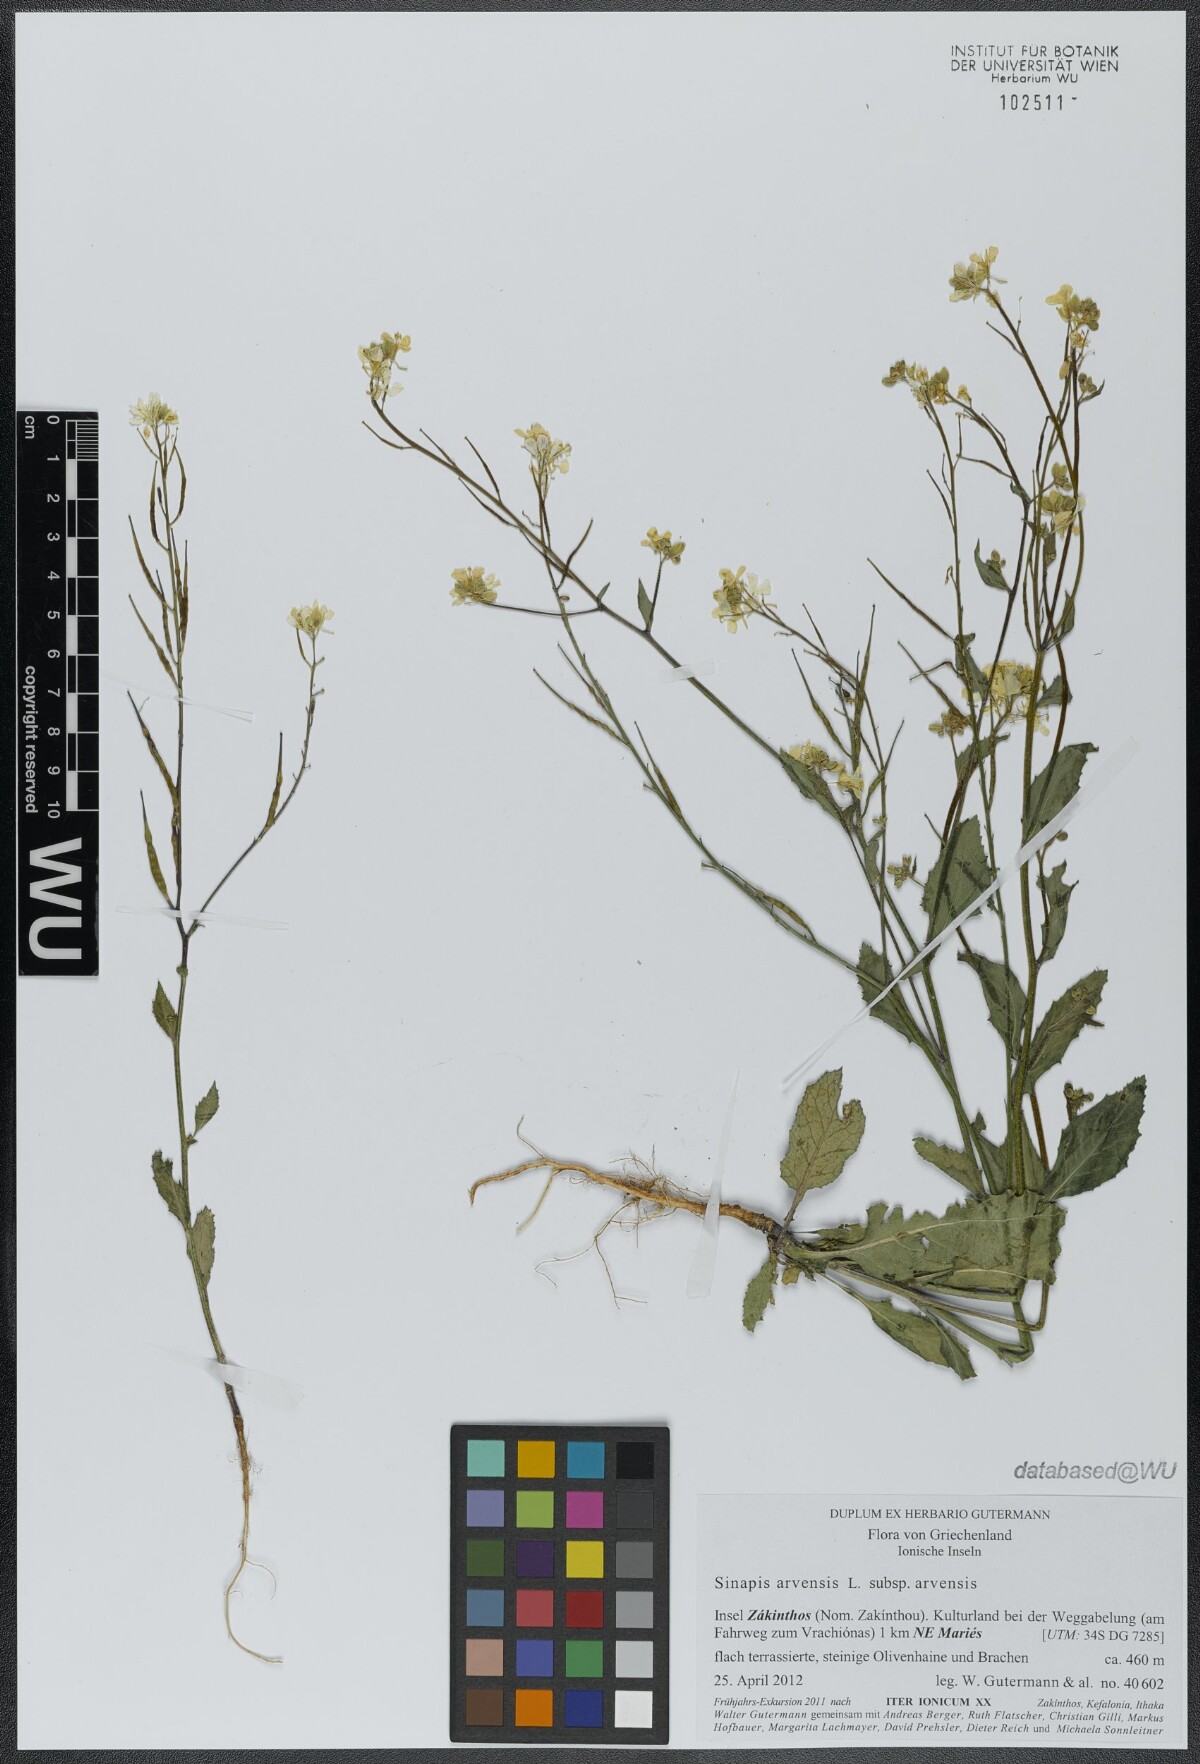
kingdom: Plantae
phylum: Tracheophyta
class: Magnoliopsida
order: Brassicales
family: Brassicaceae
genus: Sinapis
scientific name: Sinapis arvensis
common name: Charlock
